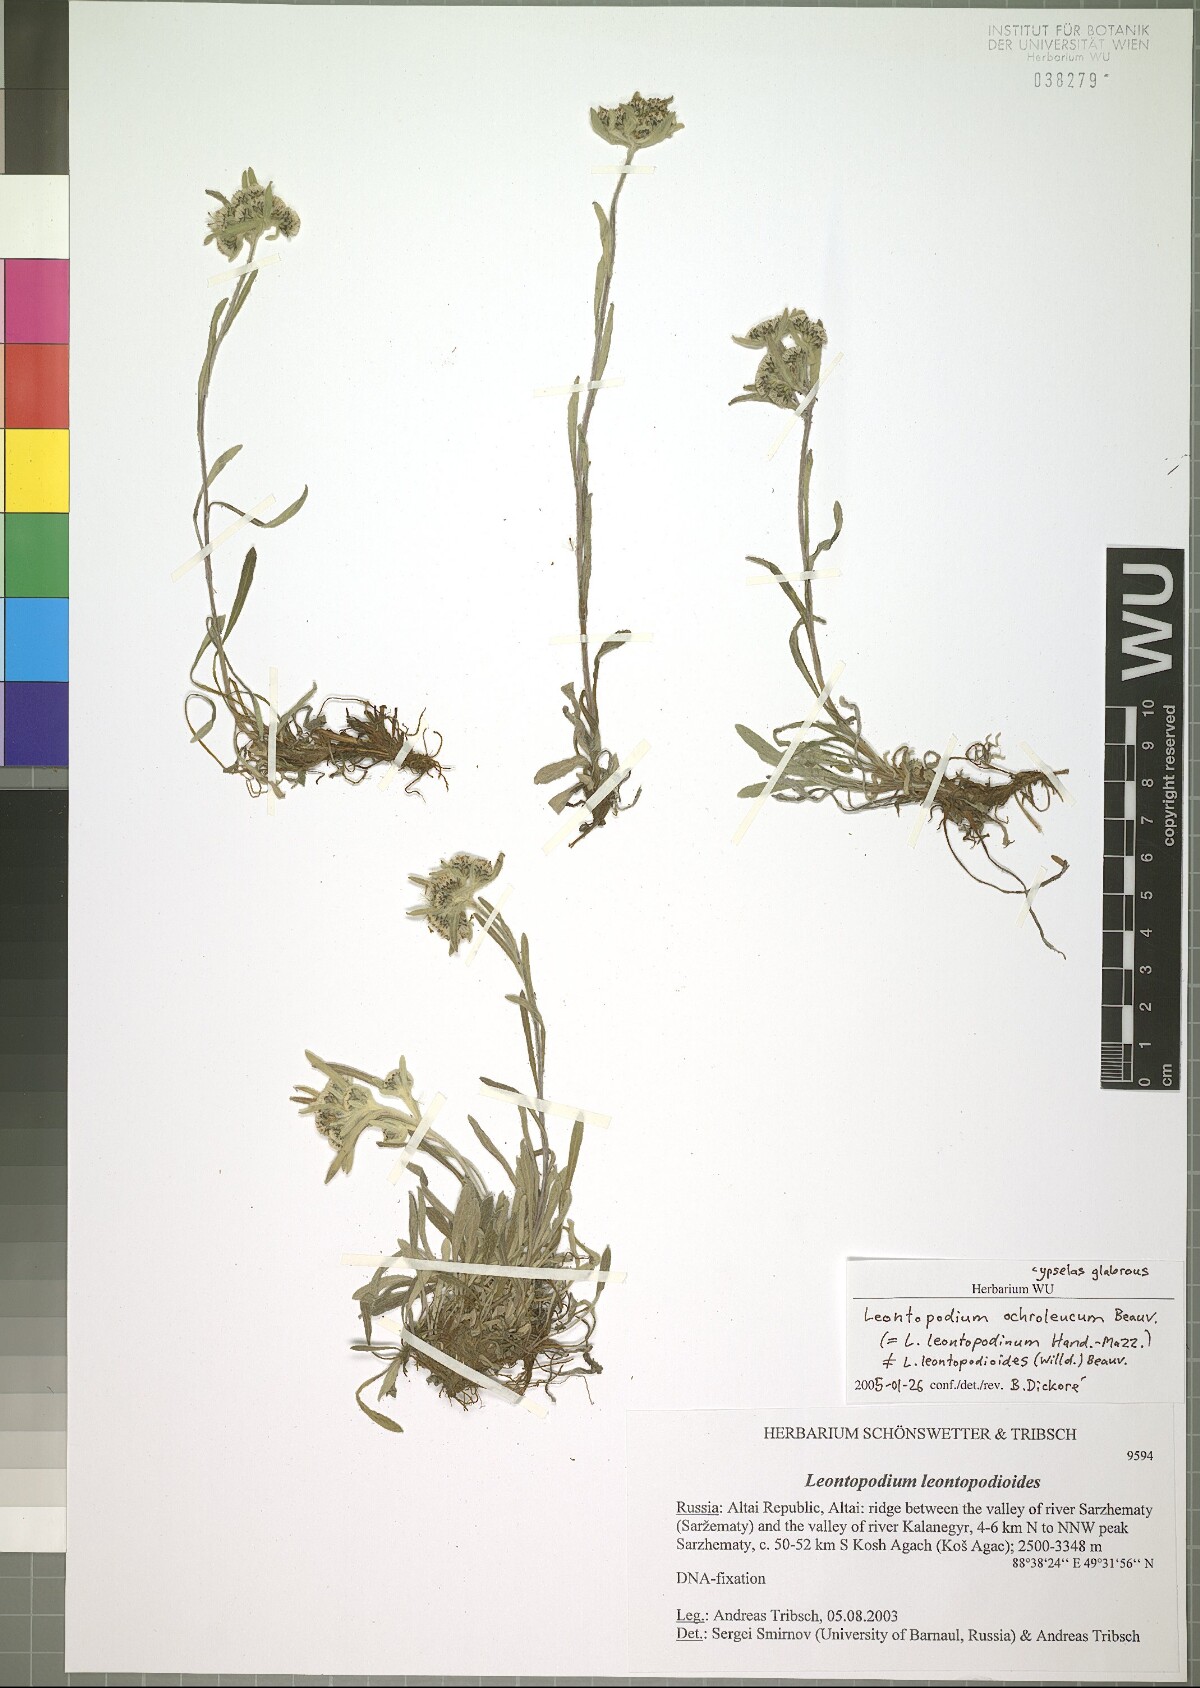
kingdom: Plantae
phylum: Tracheophyta
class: Magnoliopsida
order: Asterales
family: Asteraceae
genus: Leontopodium
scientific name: Leontopodium leontopodinum
